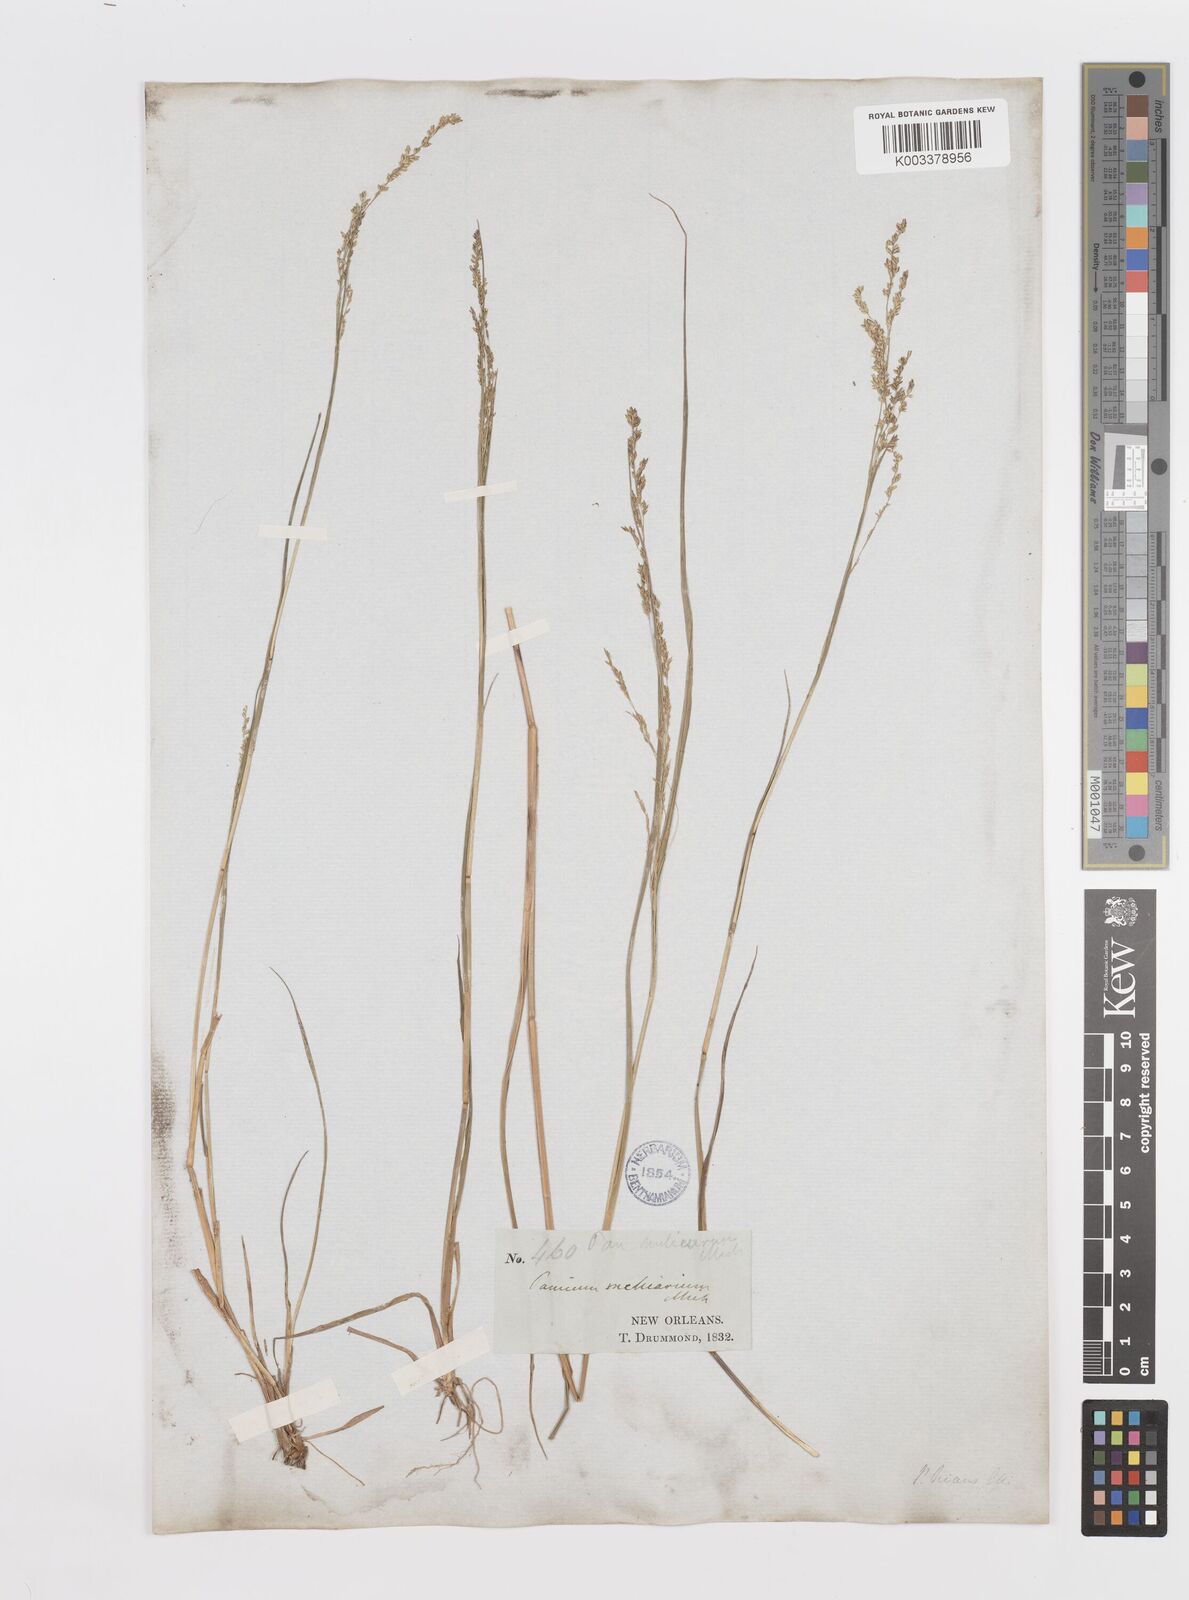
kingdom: Plantae
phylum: Tracheophyta
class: Liliopsida
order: Poales
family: Poaceae
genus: Steinchisma
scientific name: Steinchisma hians
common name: Gaping panic grass
